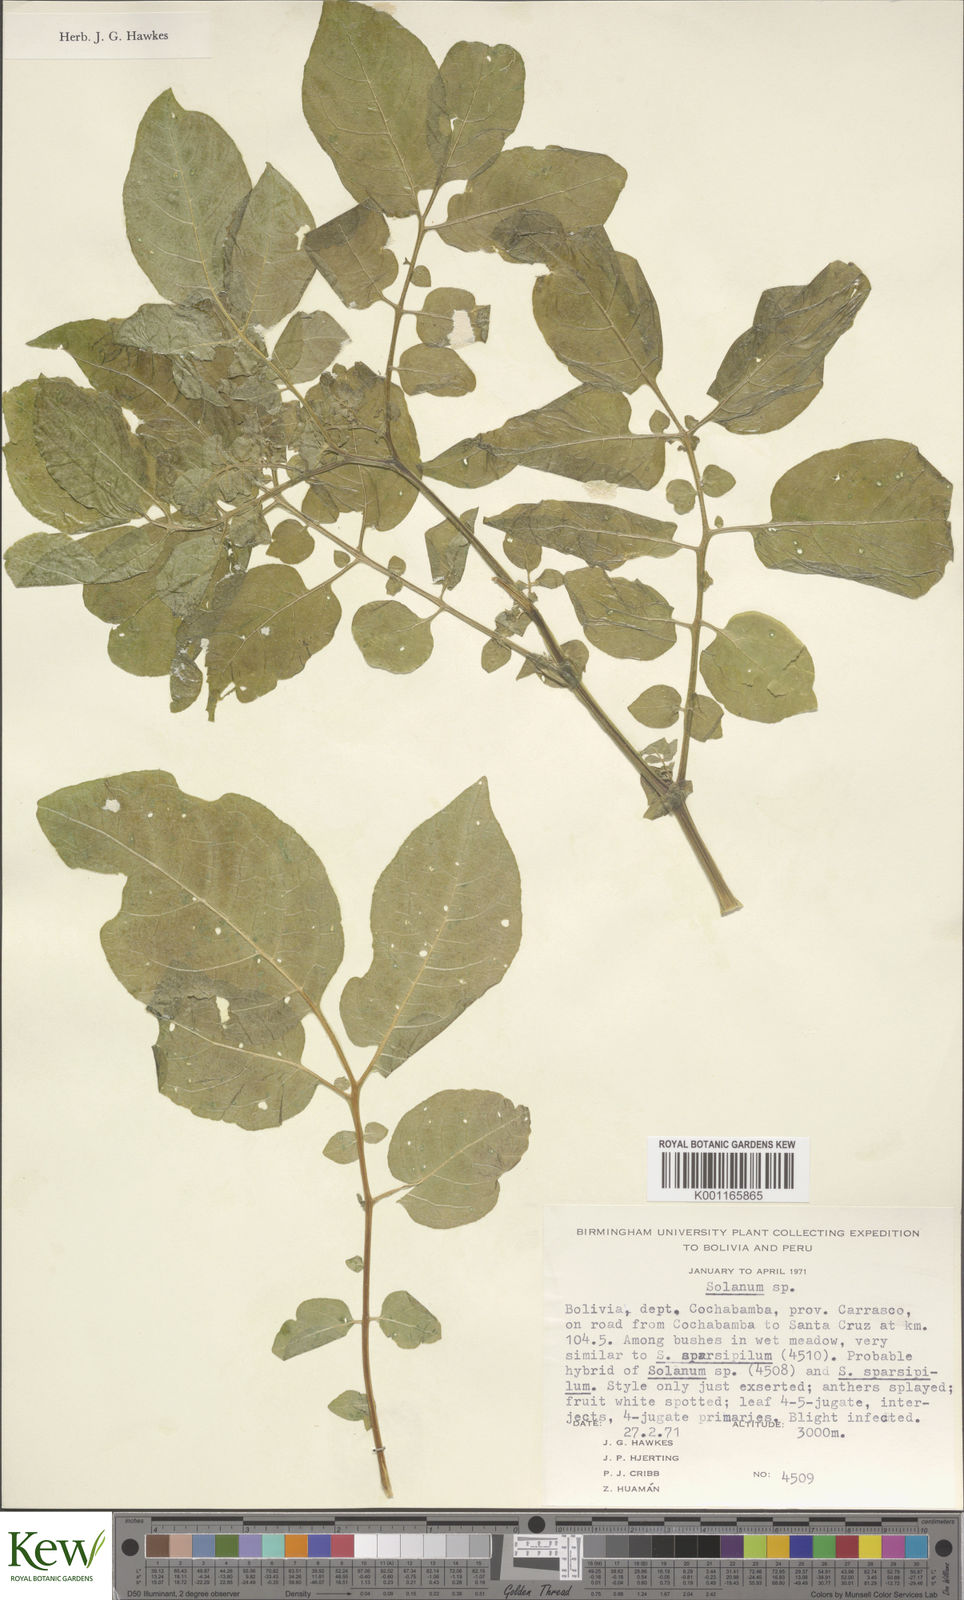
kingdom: Plantae
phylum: Tracheophyta
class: Magnoliopsida
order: Solanales
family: Solanaceae
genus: Solanum
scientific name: Solanum brevicaule
